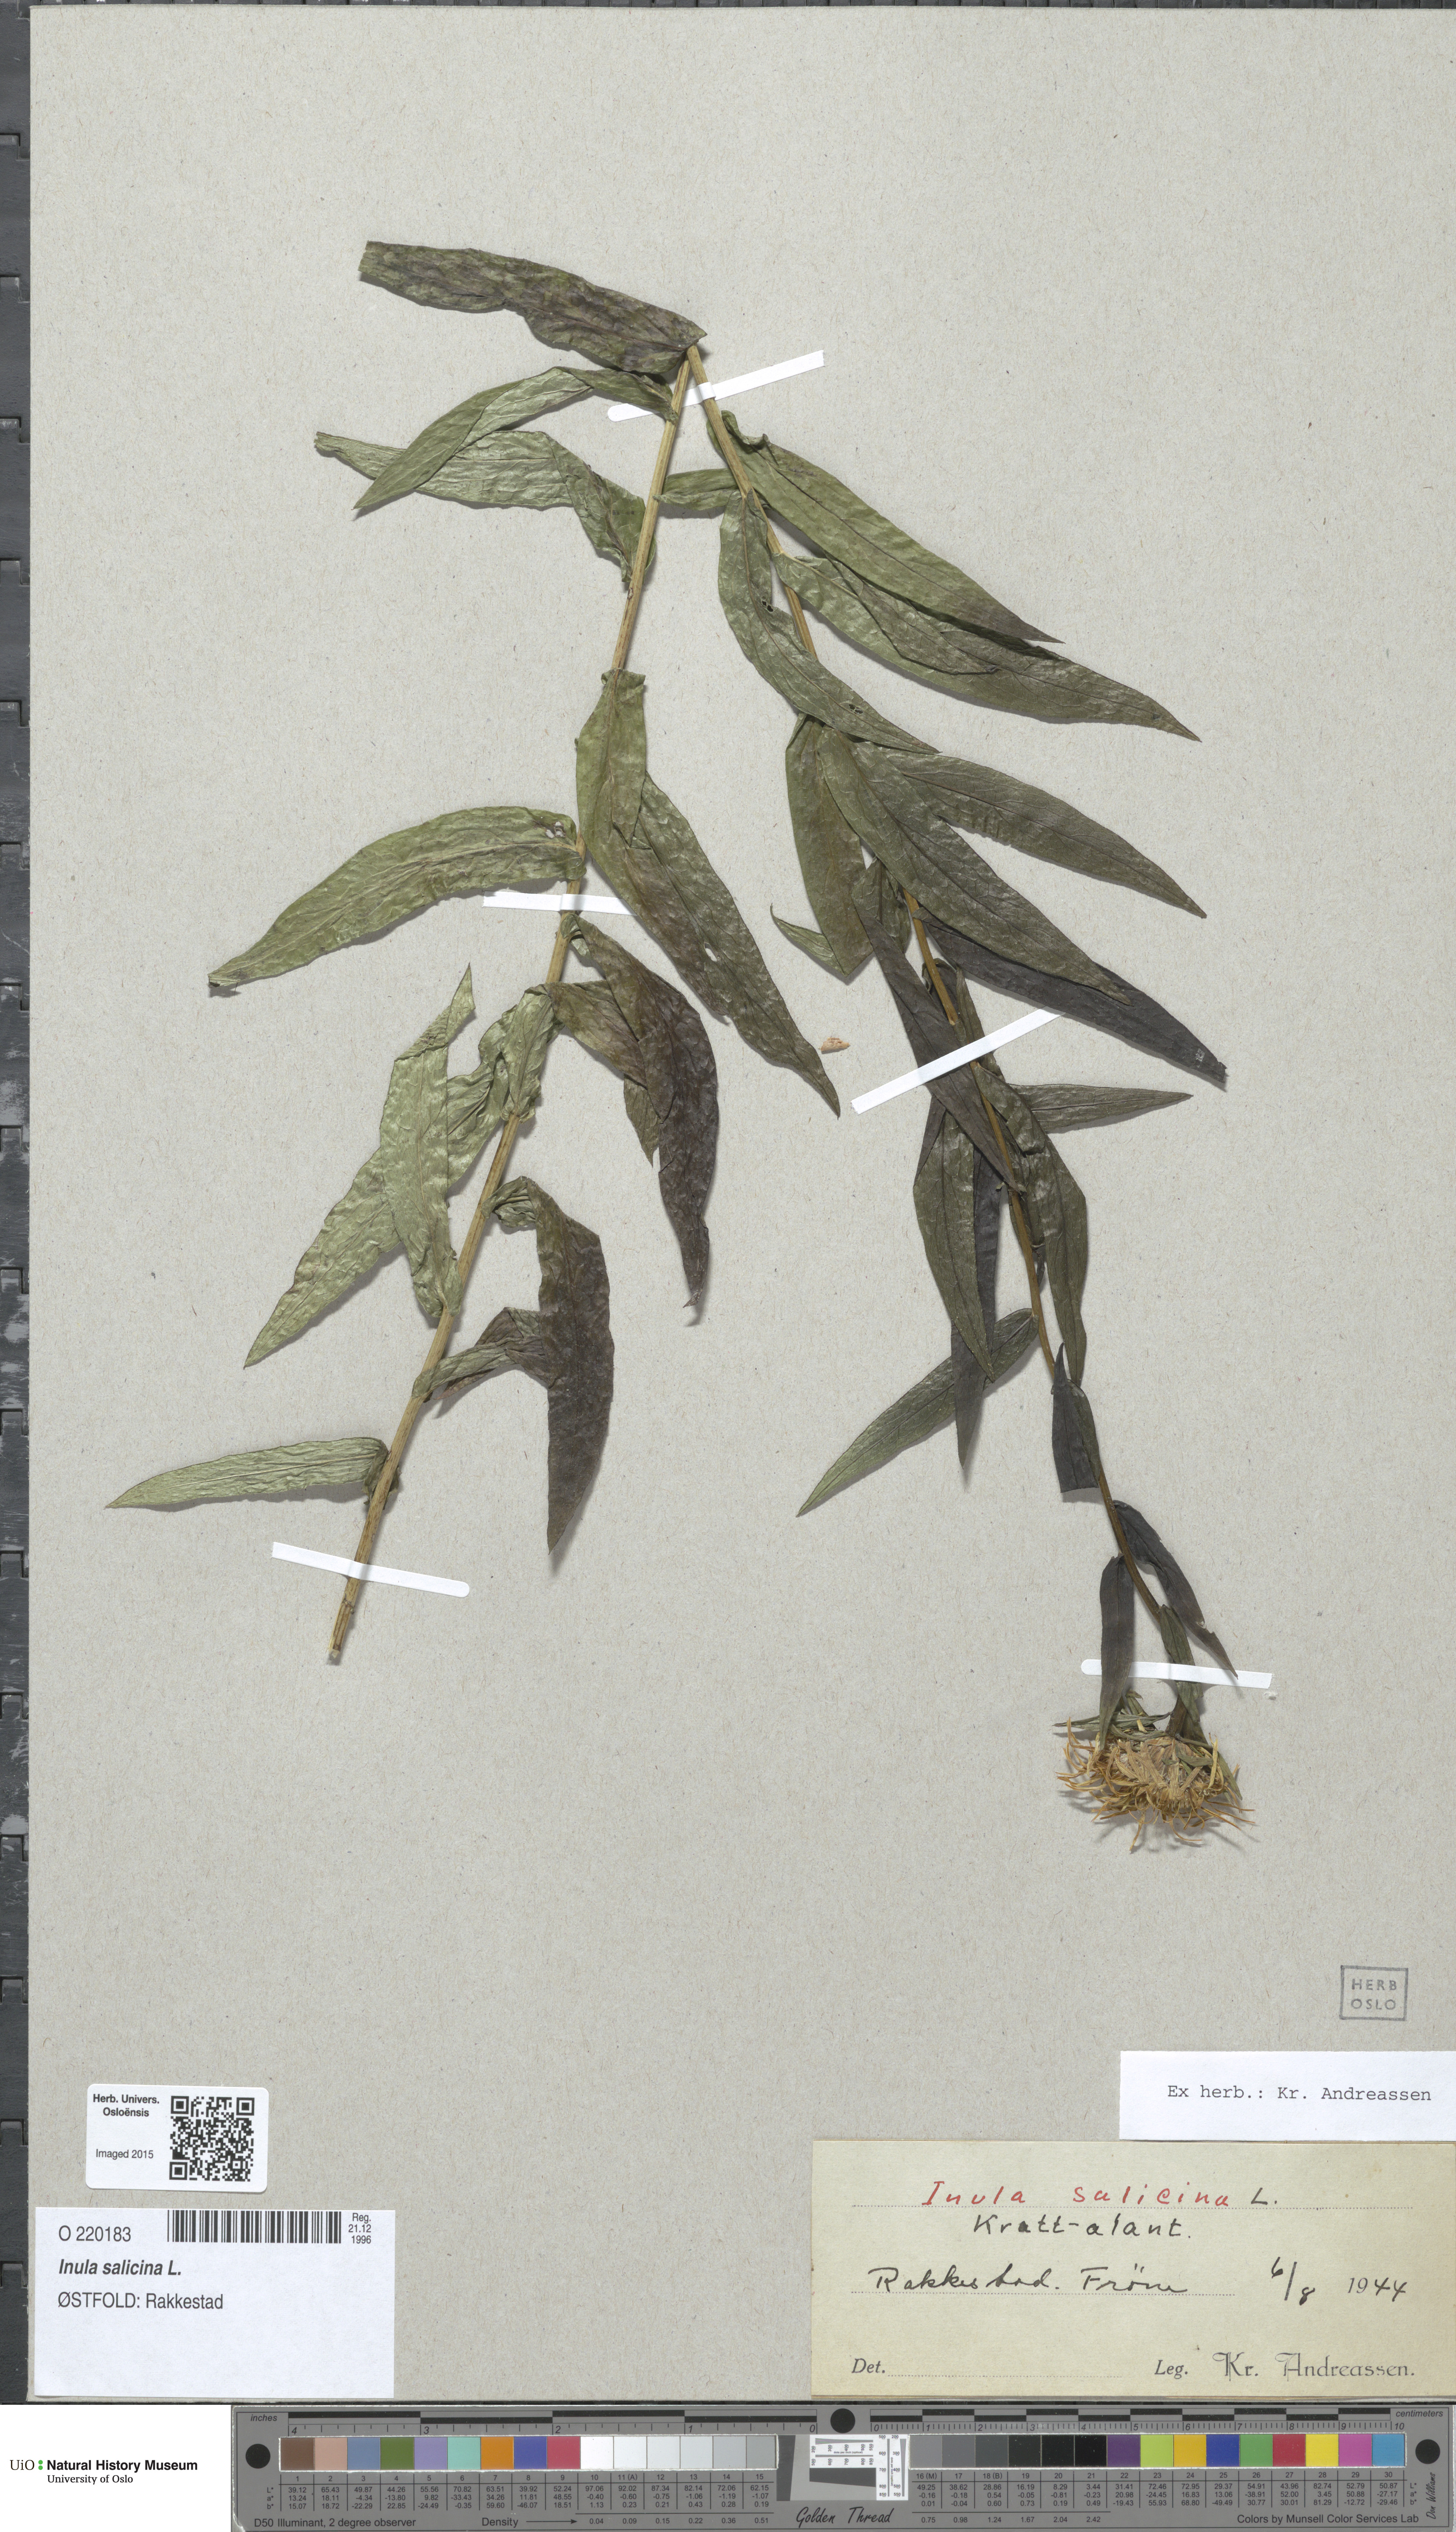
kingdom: Plantae
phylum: Tracheophyta
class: Magnoliopsida
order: Asterales
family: Asteraceae
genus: Pentanema
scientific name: Pentanema salicinum
